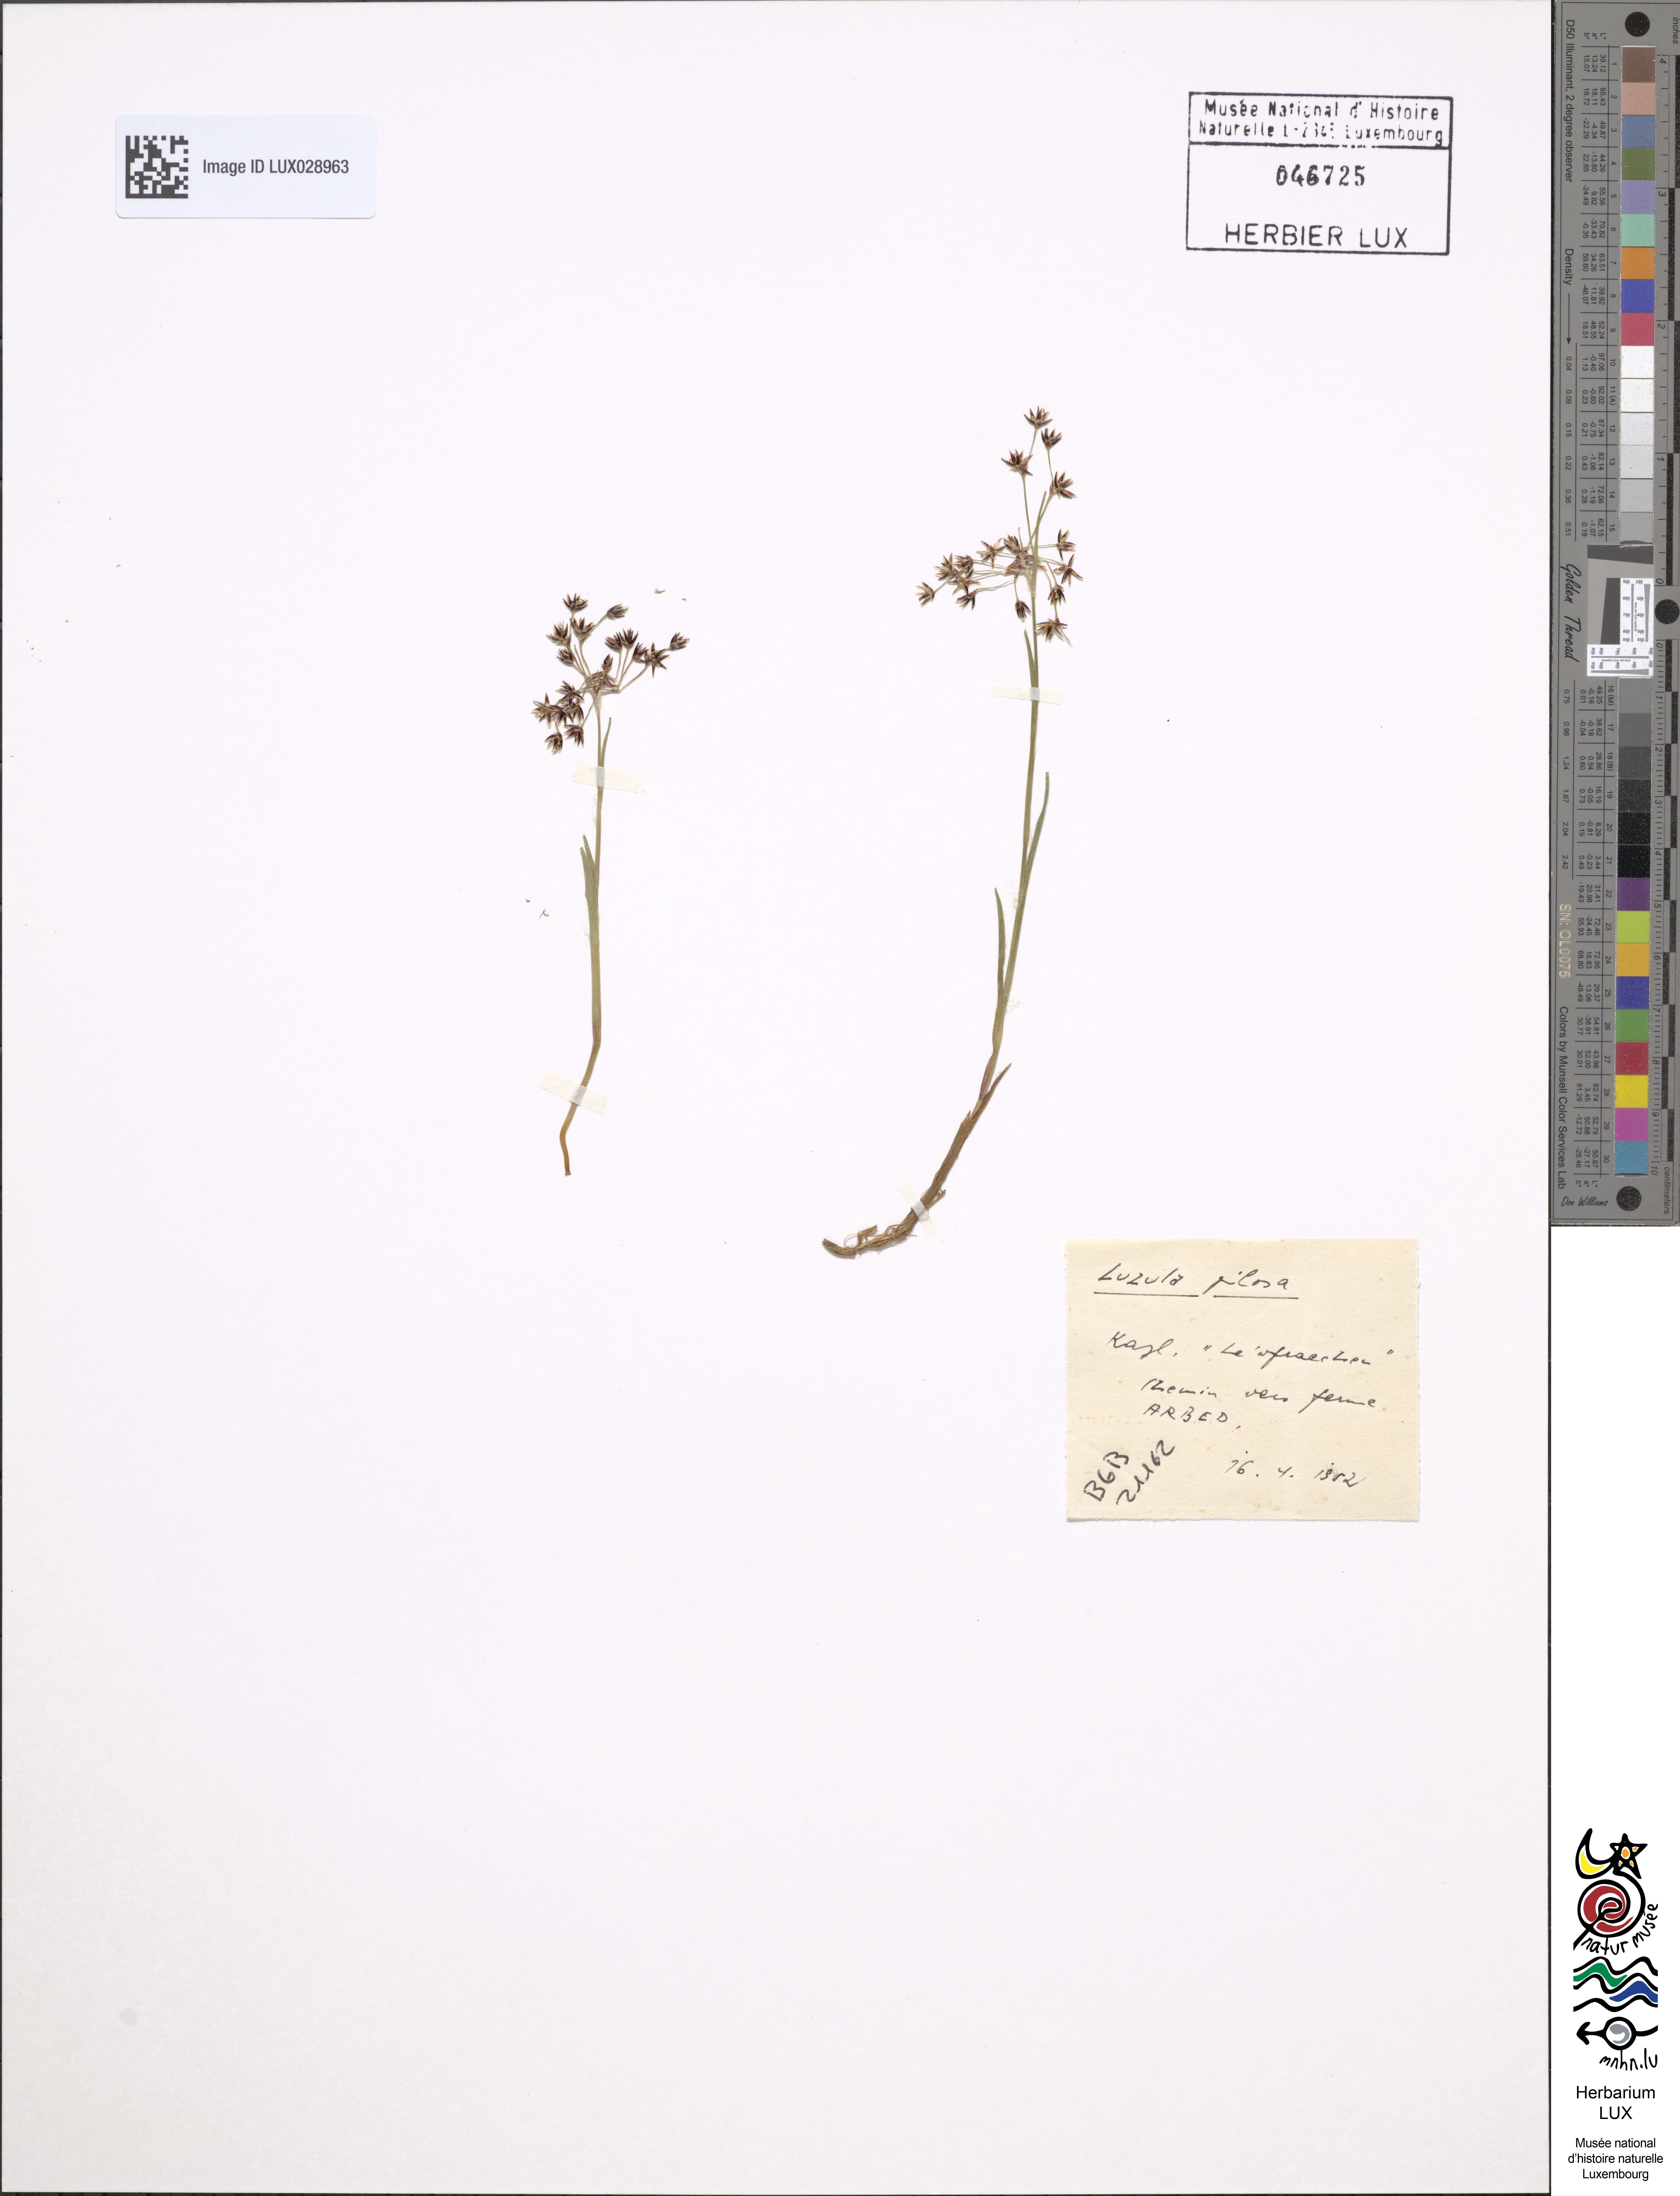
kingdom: Plantae
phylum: Tracheophyta
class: Liliopsida
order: Poales
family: Juncaceae
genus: Luzula
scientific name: Luzula pilosa
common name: Hairy wood-rush
